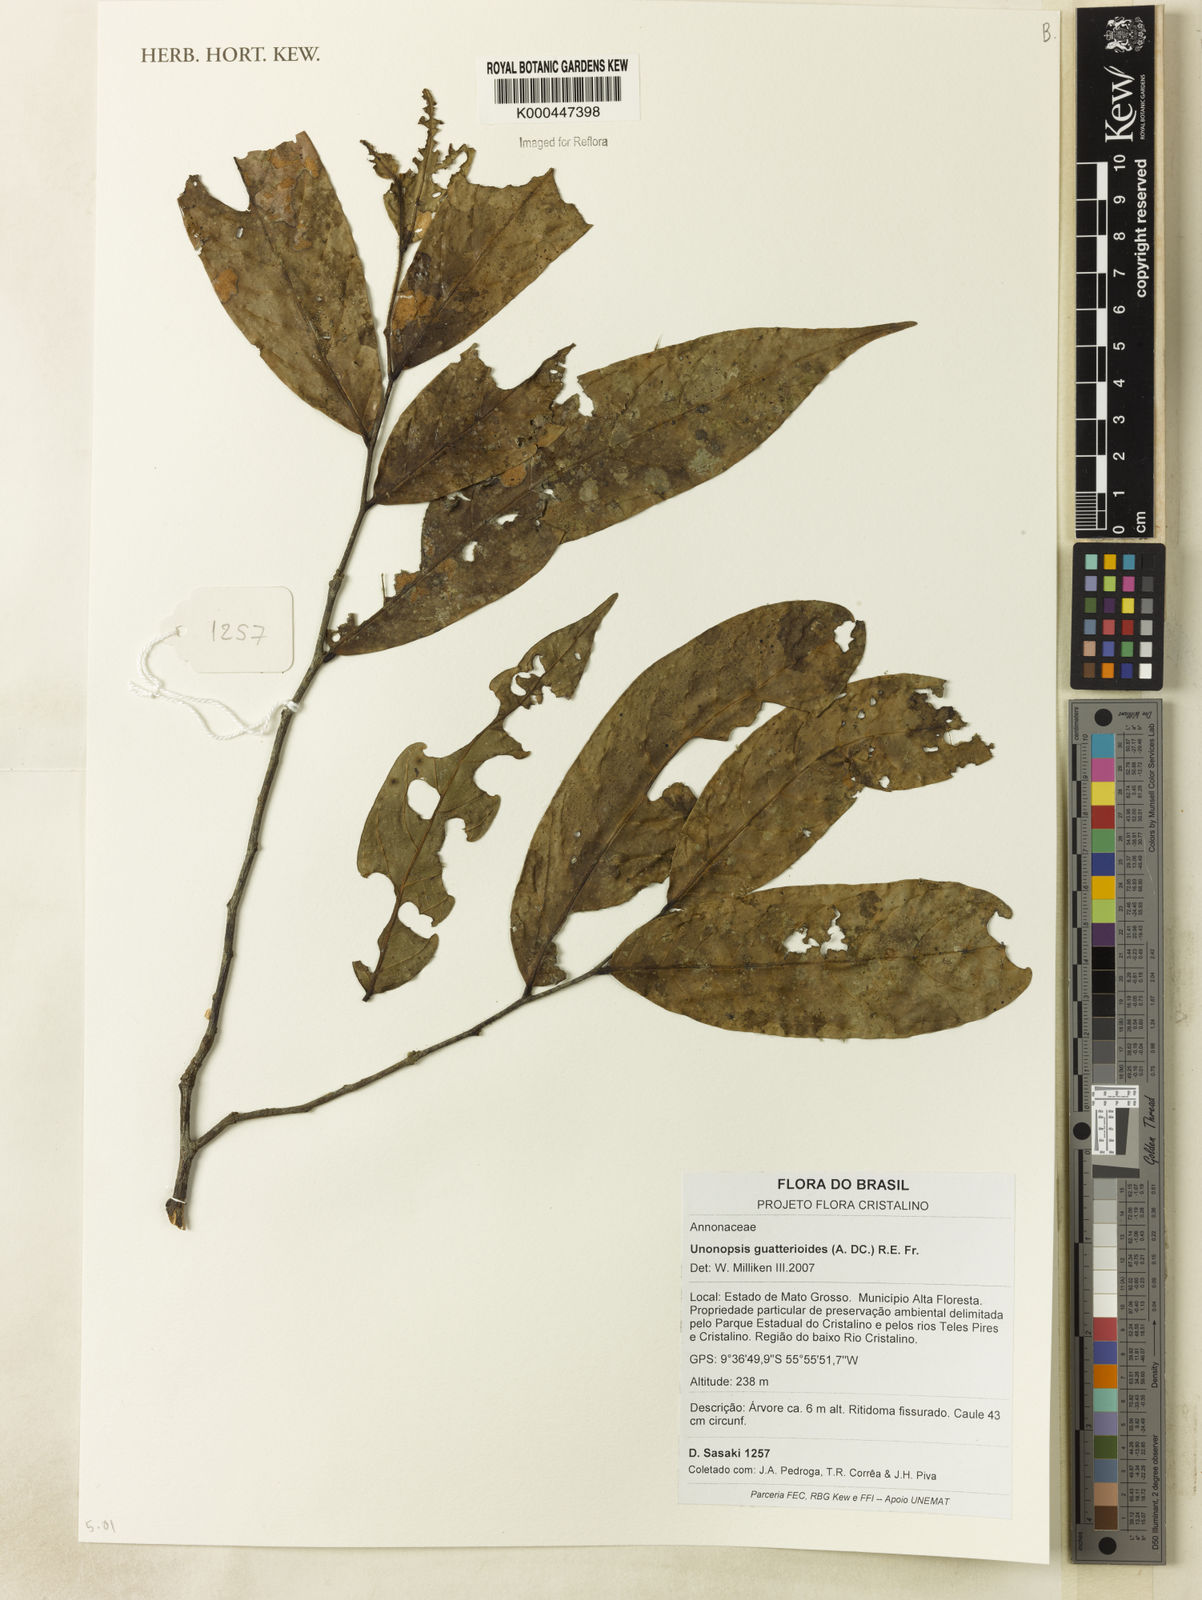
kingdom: Plantae
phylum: Tracheophyta
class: Magnoliopsida
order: Magnoliales
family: Annonaceae
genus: Unonopsis
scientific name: Unonopsis guatterioides
